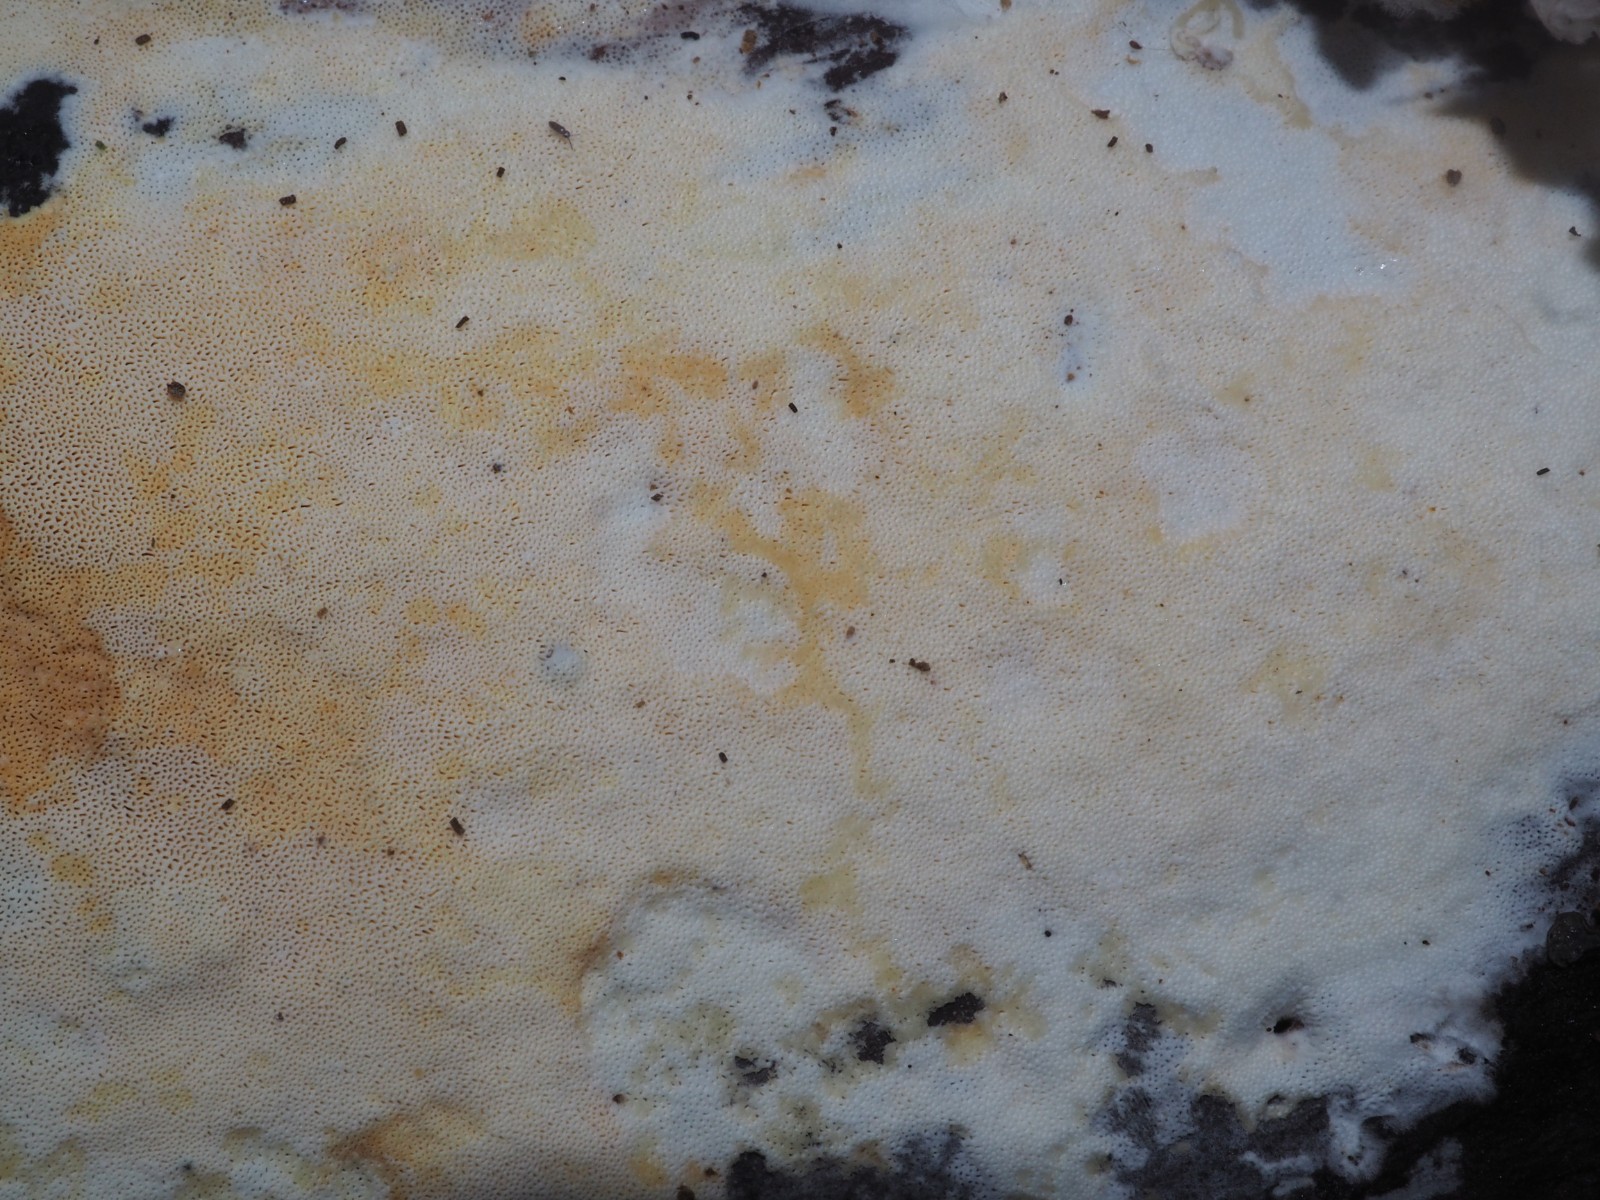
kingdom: Fungi
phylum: Basidiomycota
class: Agaricomycetes
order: Hymenochaetales
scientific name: Hymenochaetales
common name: børstesvampordenen
